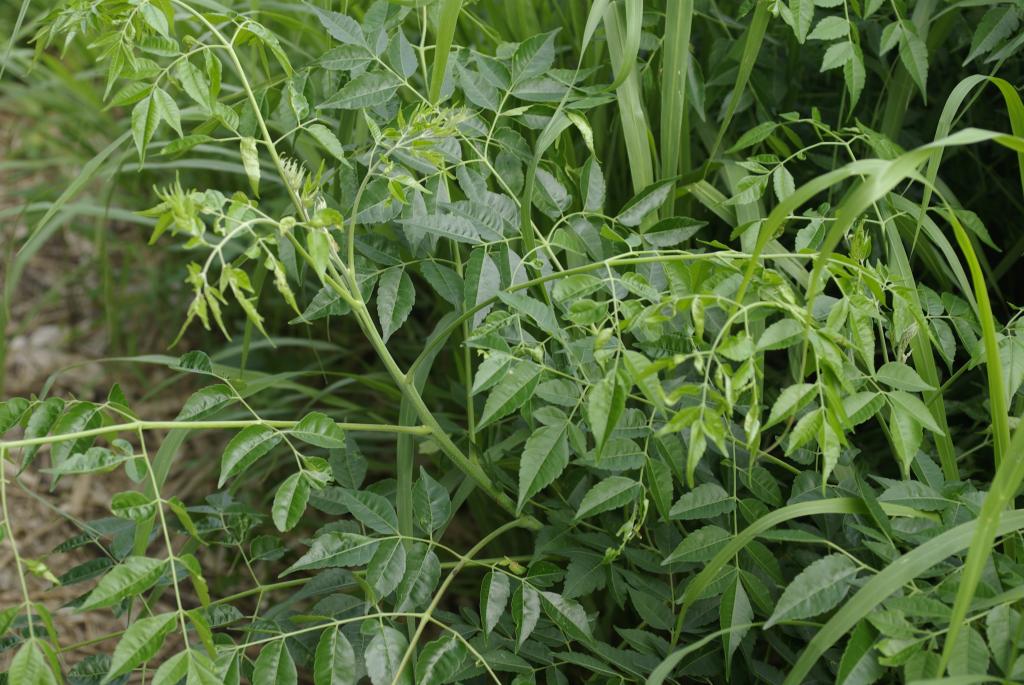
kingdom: Plantae
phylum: Tracheophyta
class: Magnoliopsida
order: Sapindales
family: Meliaceae
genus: Melia
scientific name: Melia azedarach
